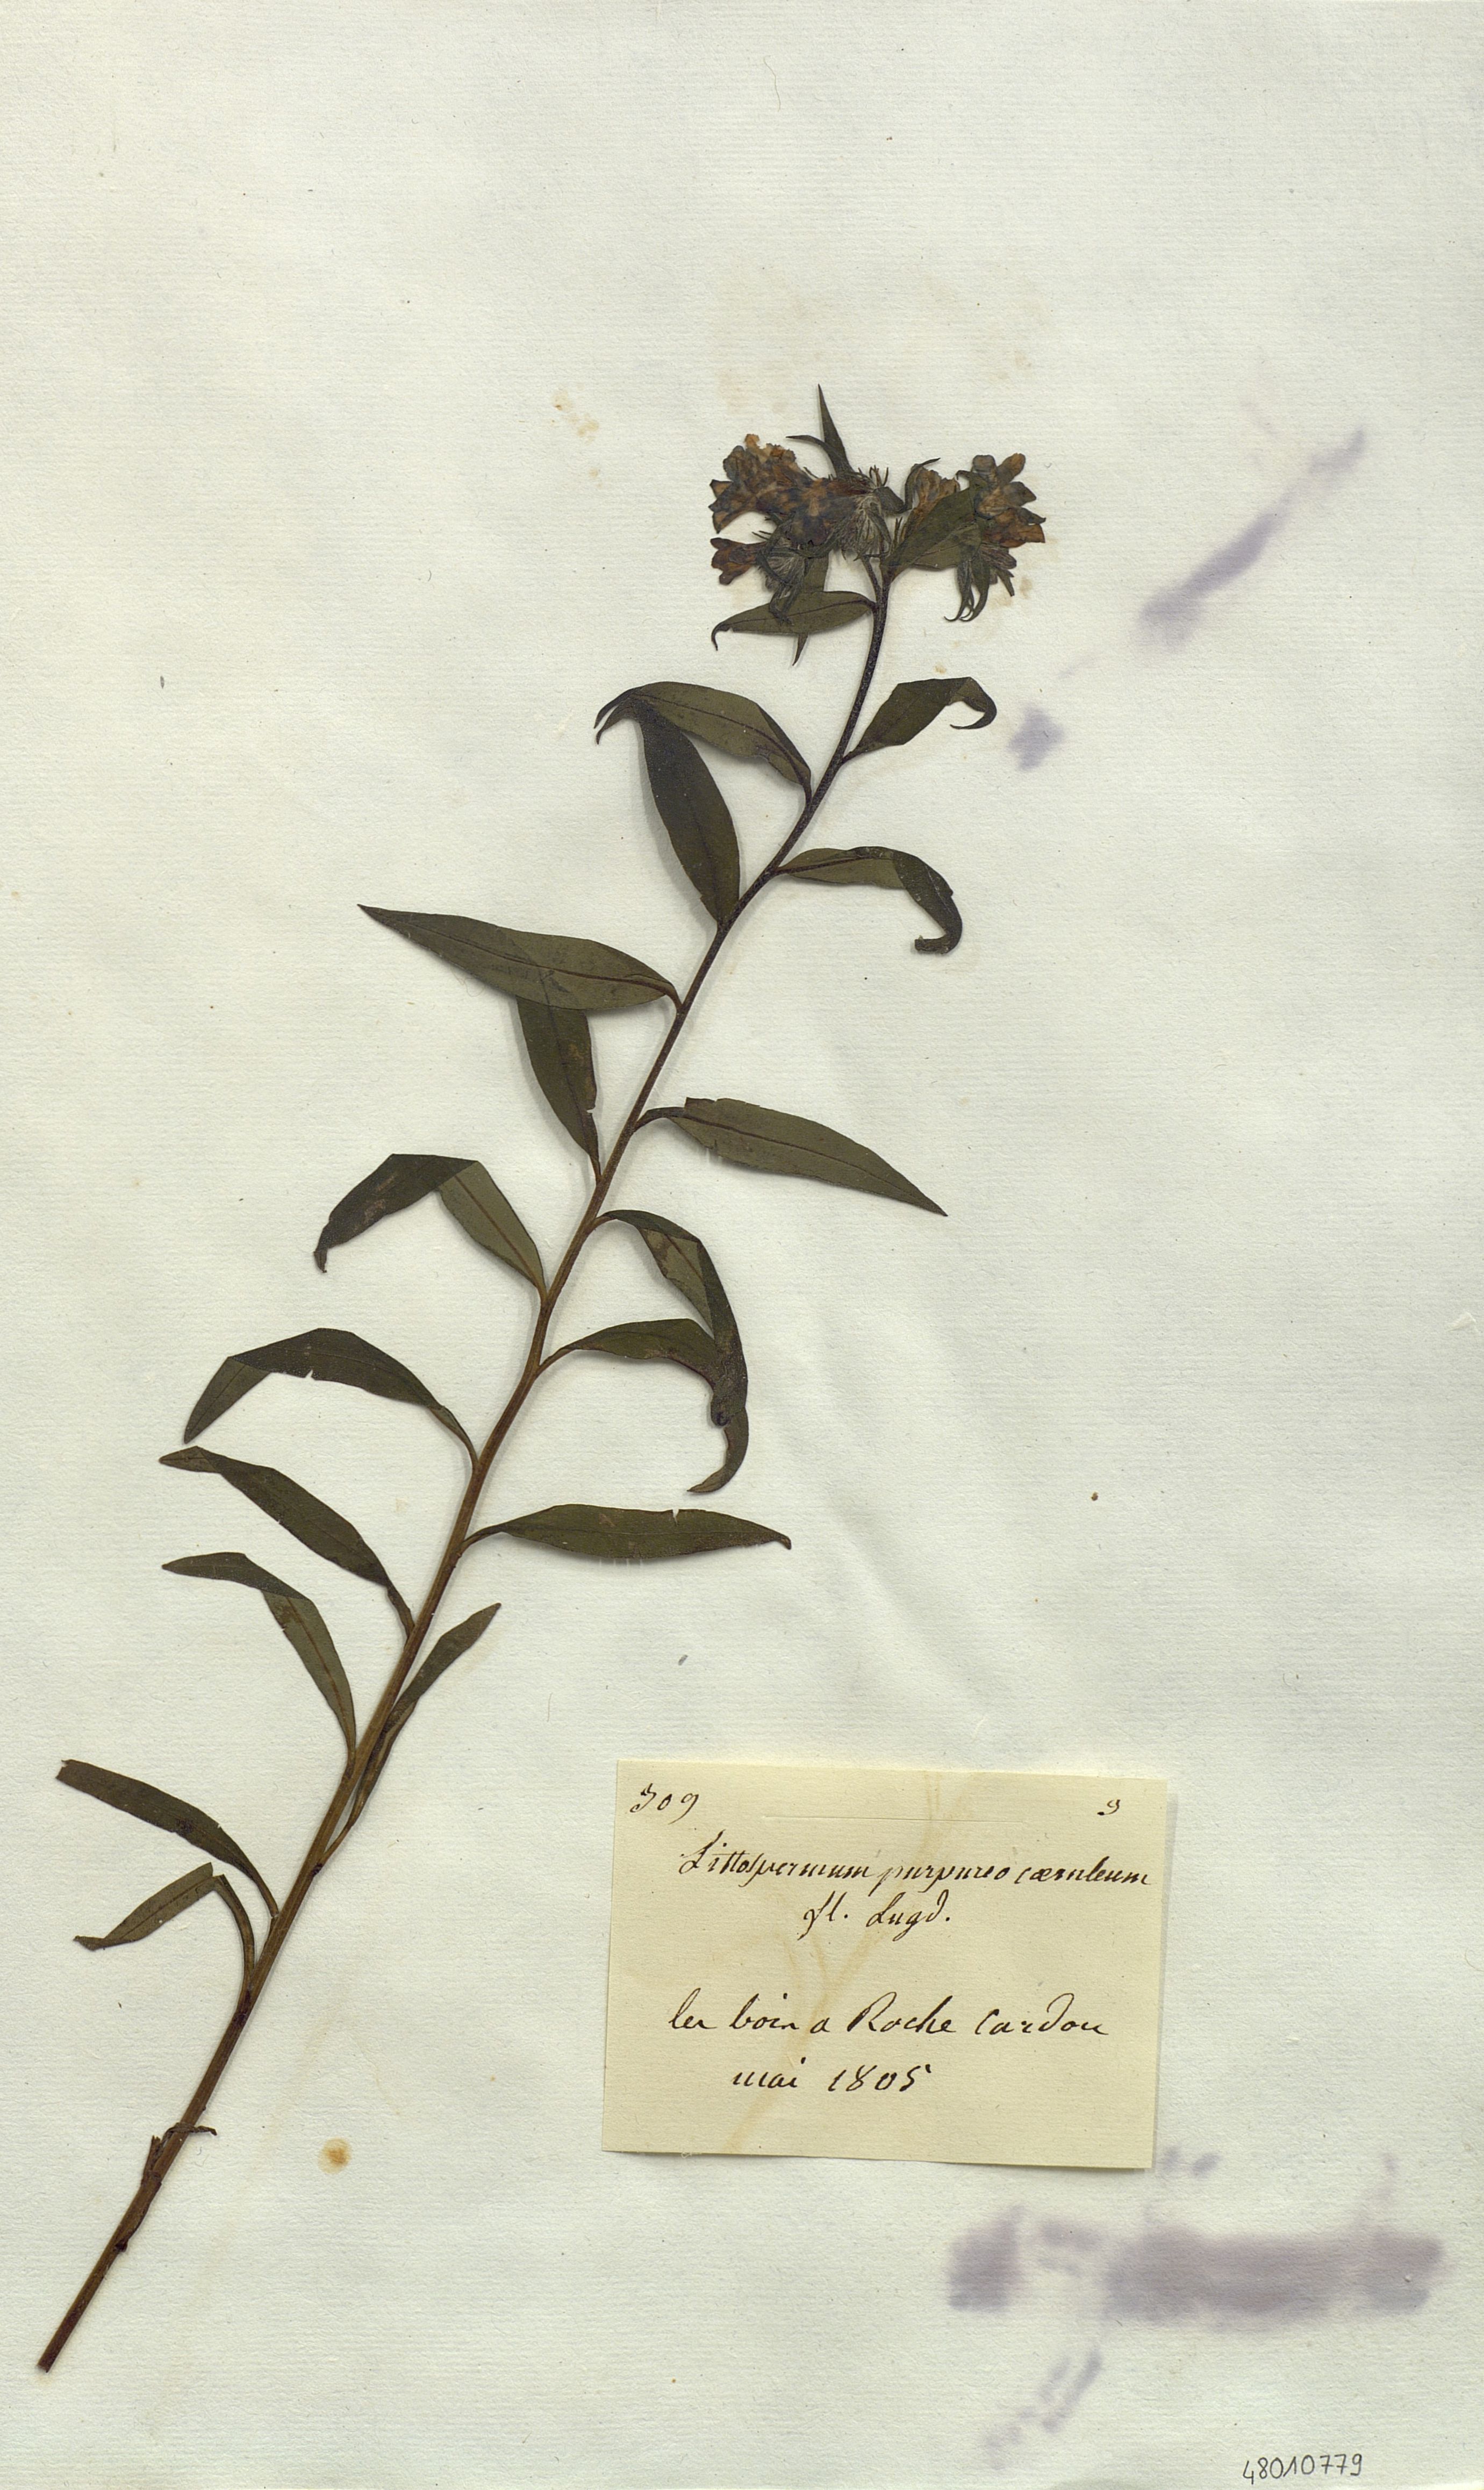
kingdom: Plantae
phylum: Tracheophyta
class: Magnoliopsida
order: Boraginales
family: Boraginaceae
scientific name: Boraginaceae
